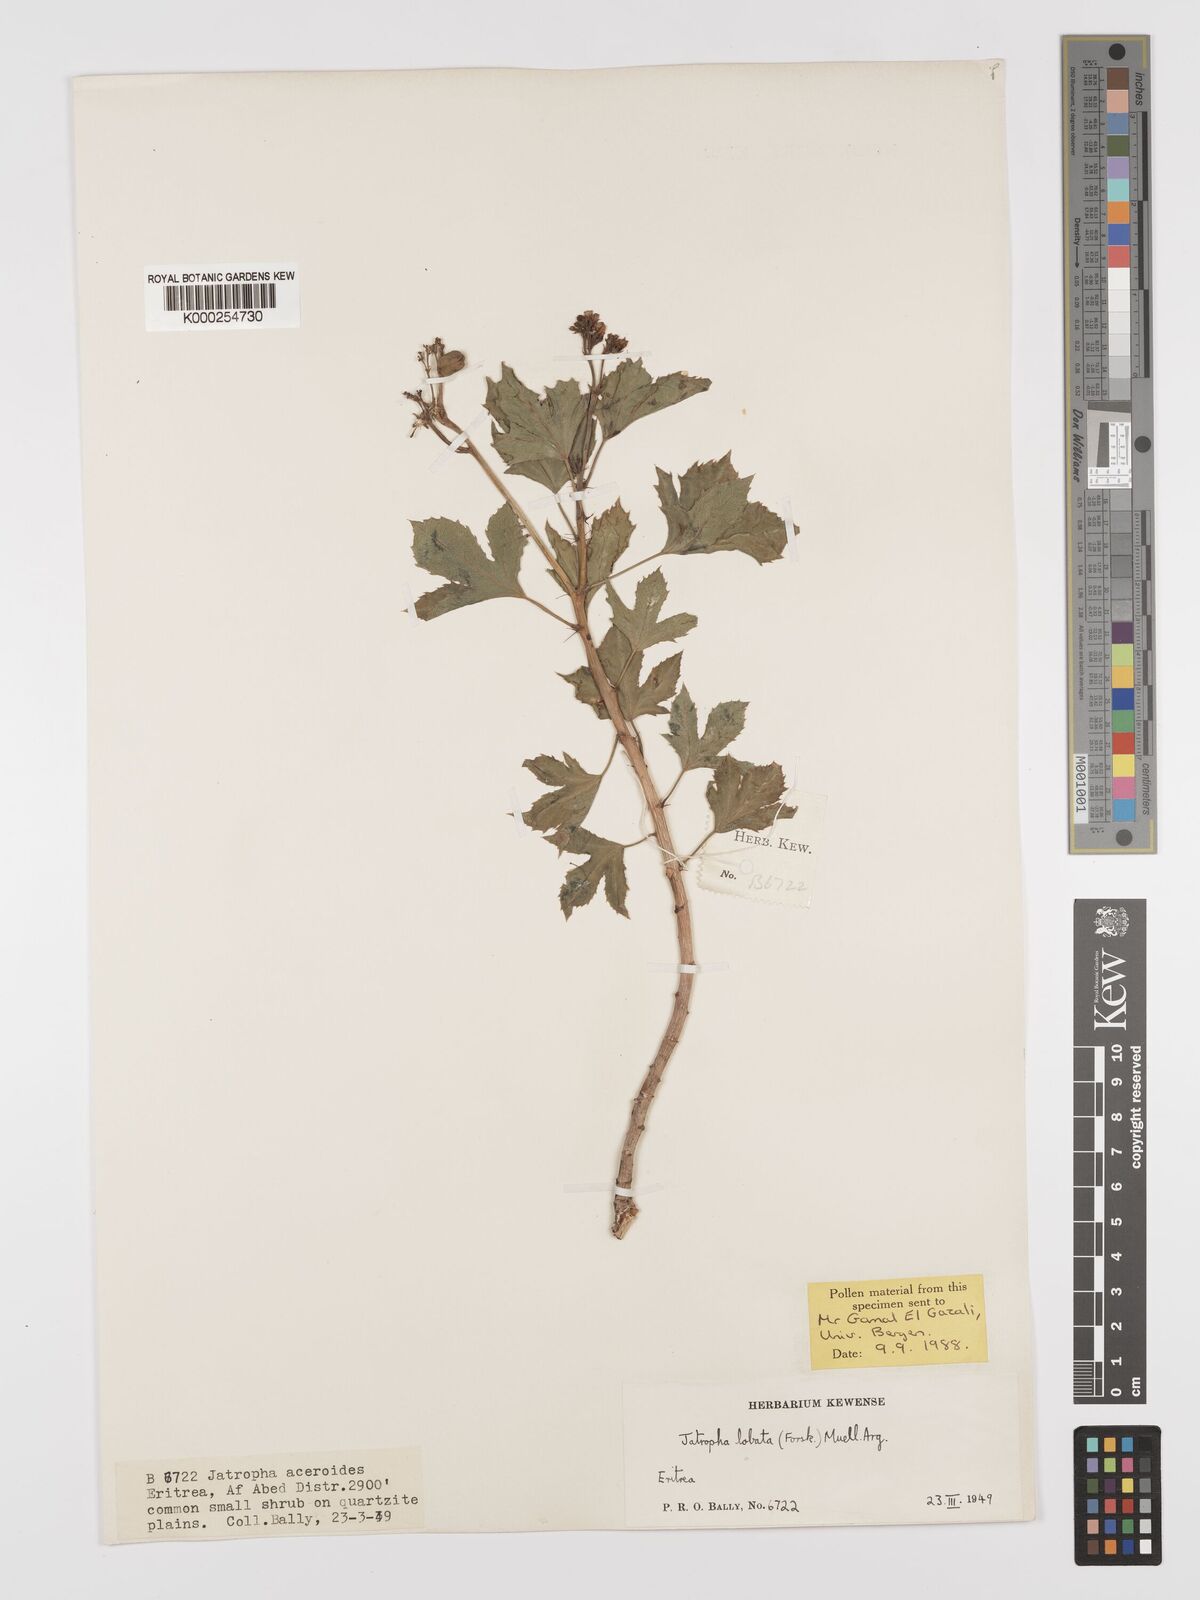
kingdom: Plantae
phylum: Tracheophyta
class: Magnoliopsida
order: Malpighiales
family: Euphorbiaceae
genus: Jatropha
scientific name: Jatropha glauca
